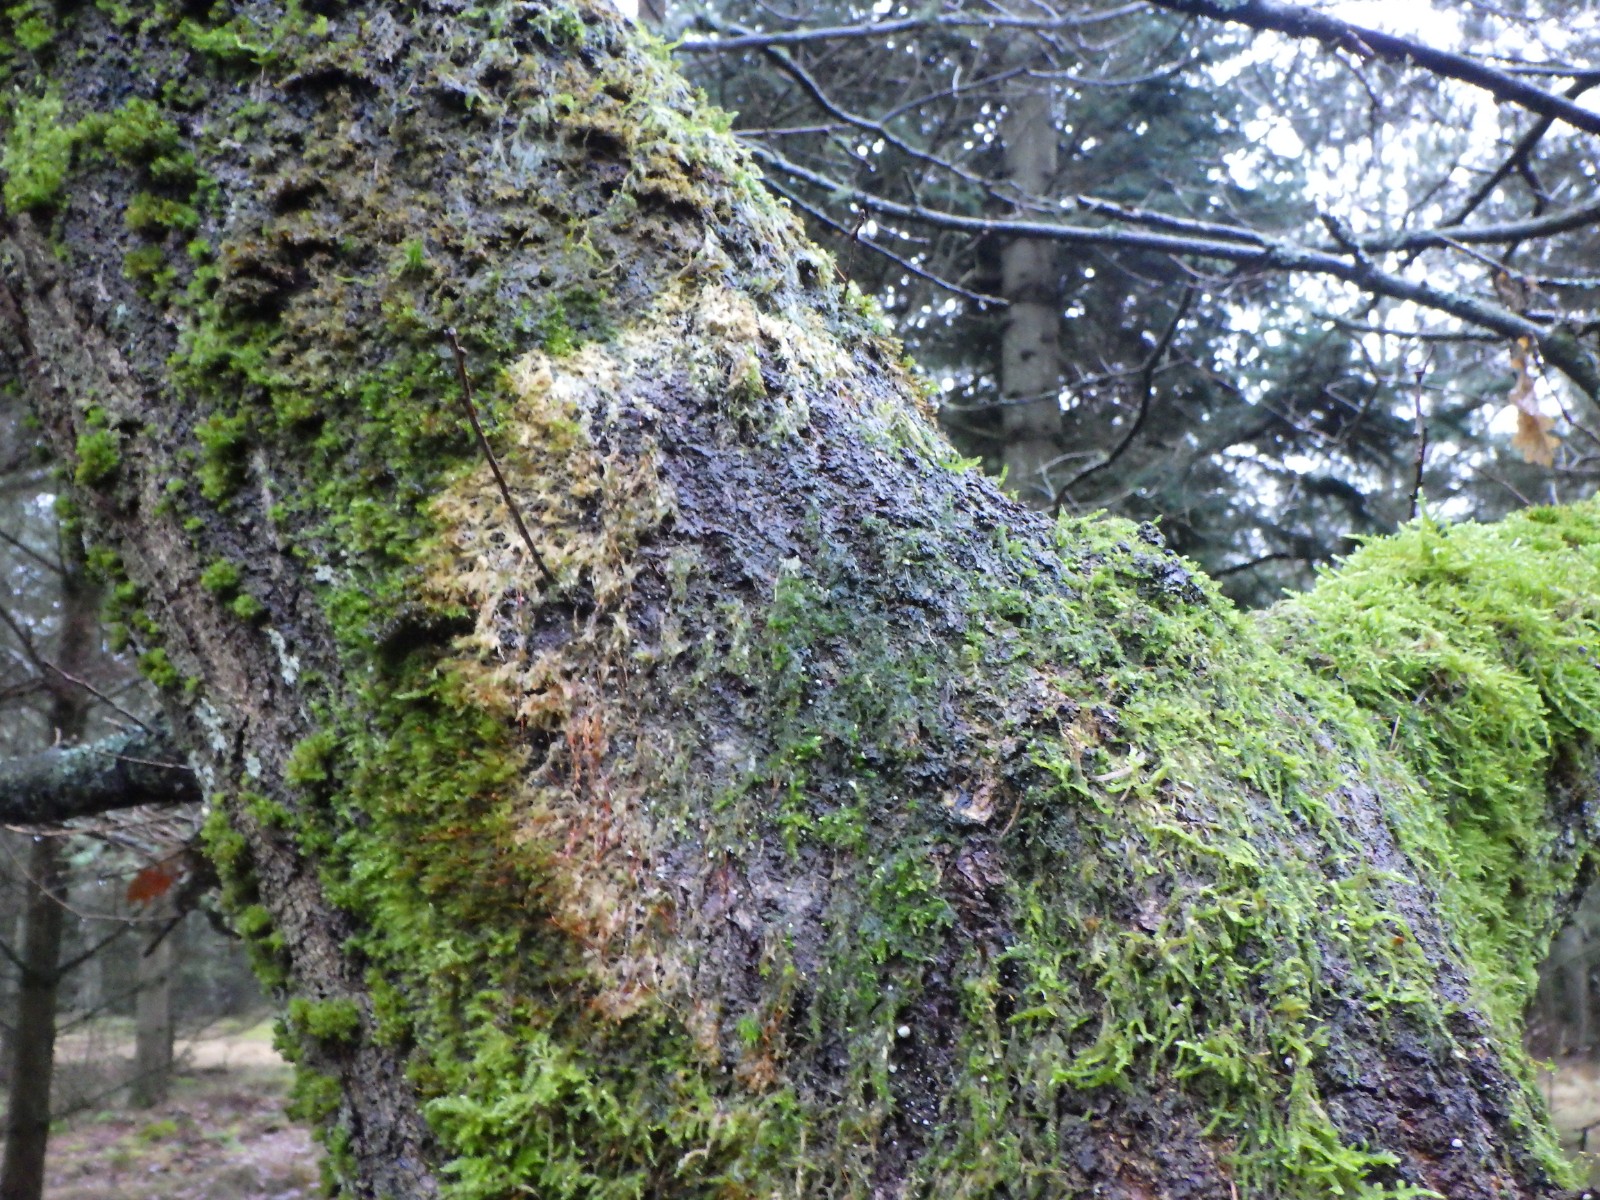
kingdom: Fungi
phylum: Basidiomycota
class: Agaricomycetes
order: Agaricales
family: Chromocyphellaceae
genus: Chromocyphella
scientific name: Chromocyphella muscicola
